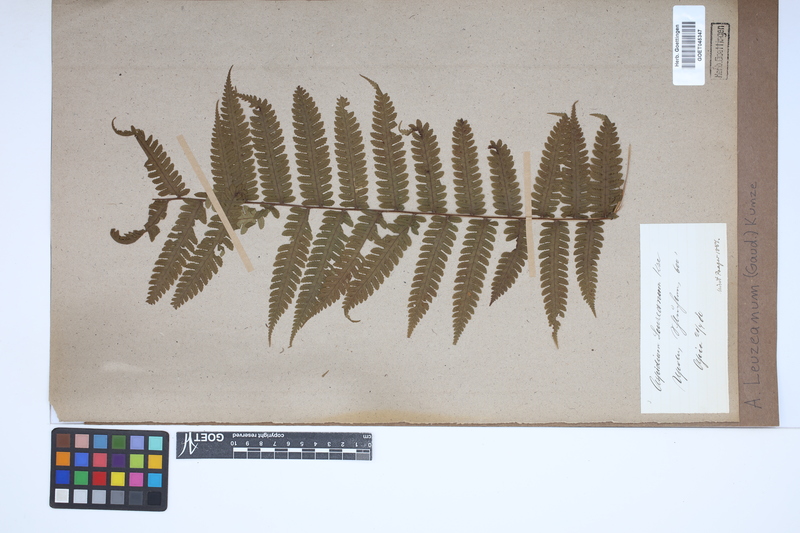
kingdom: Plantae
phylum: Tracheophyta
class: Polypodiopsida
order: Polypodiales
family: Dryopteridaceae
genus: Pleocnemia
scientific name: Pleocnemia leuzeana
